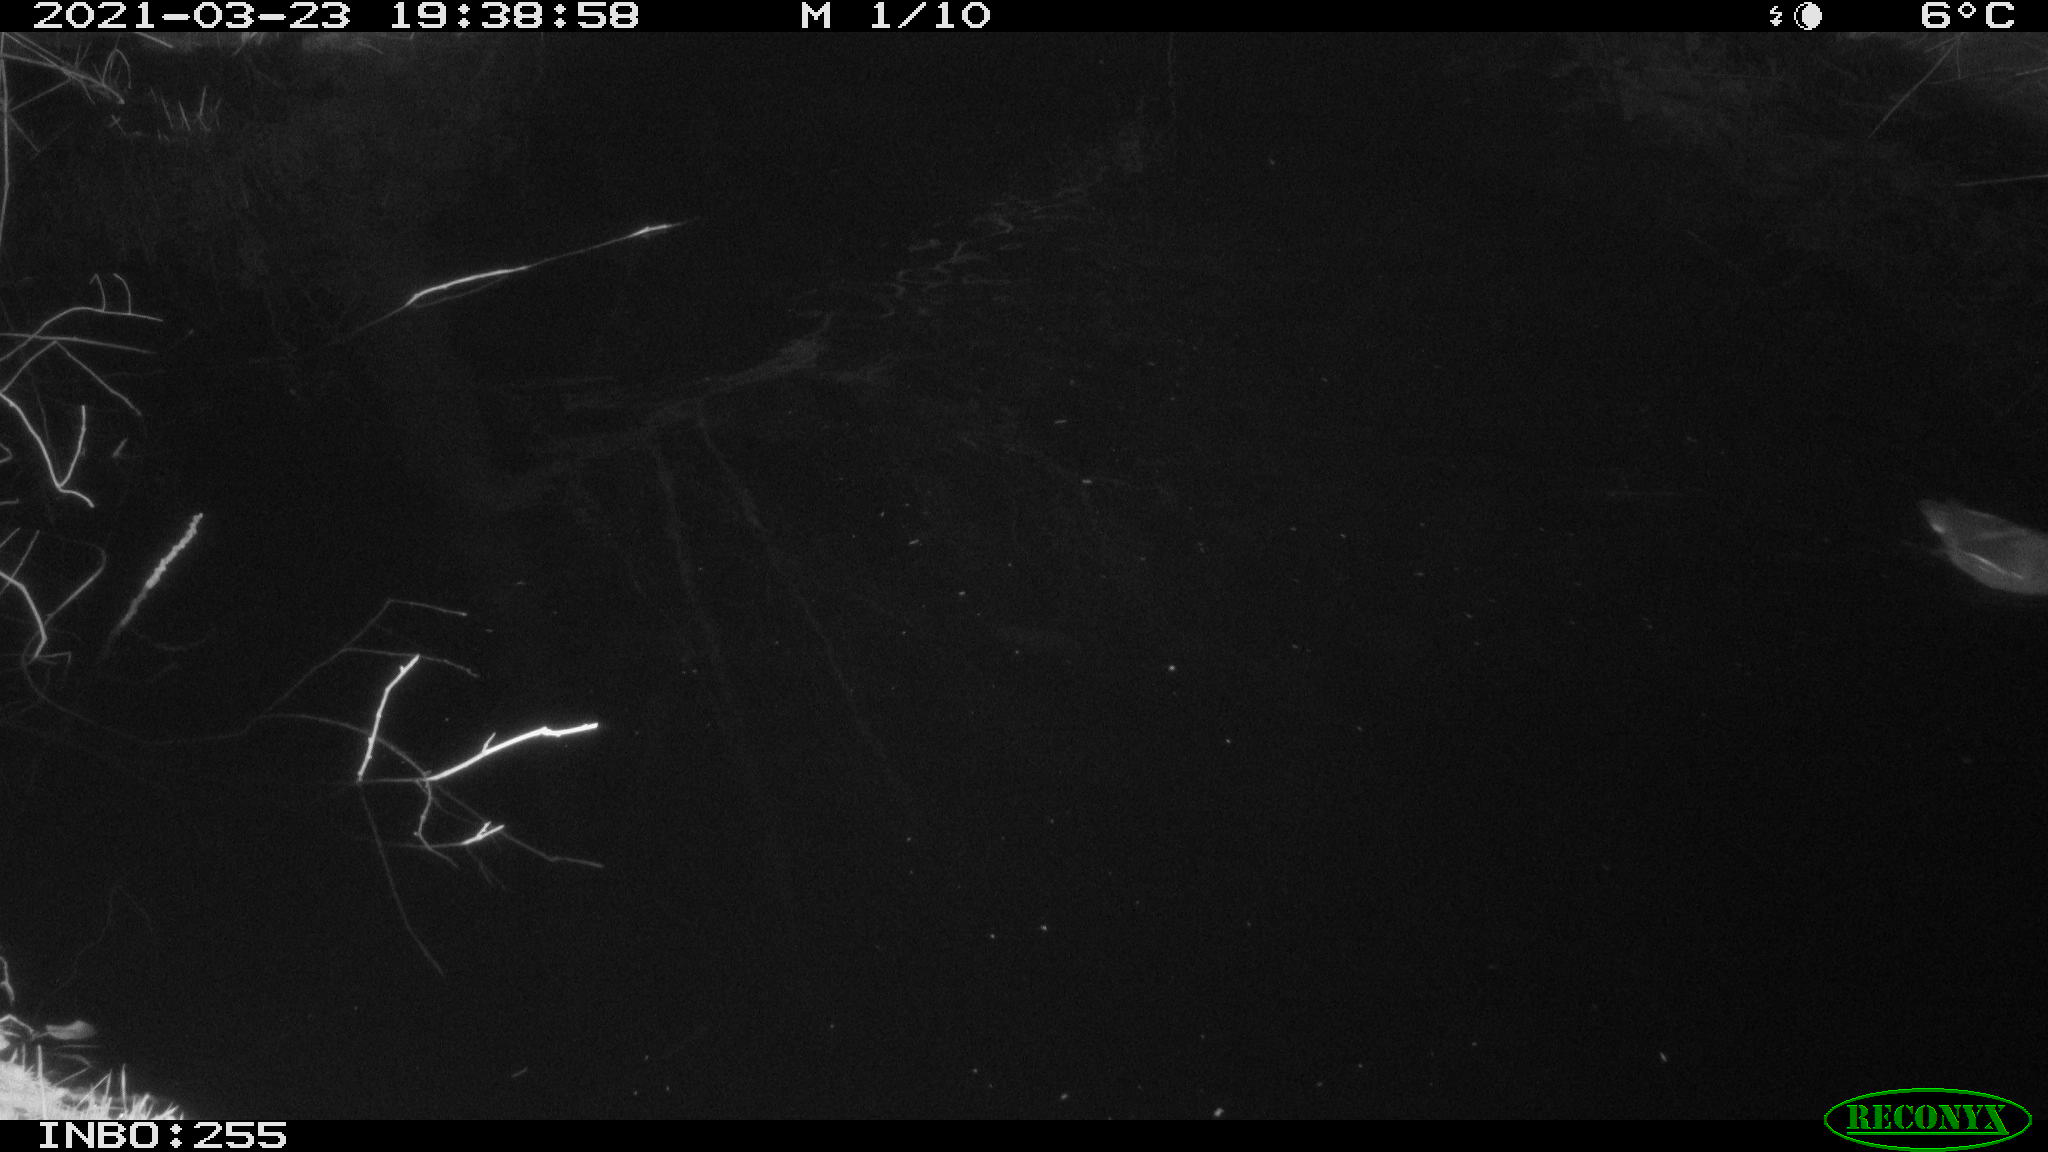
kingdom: Animalia
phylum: Chordata
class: Aves
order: Gruiformes
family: Rallidae
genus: Gallinula
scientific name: Gallinula chloropus
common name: Common moorhen
